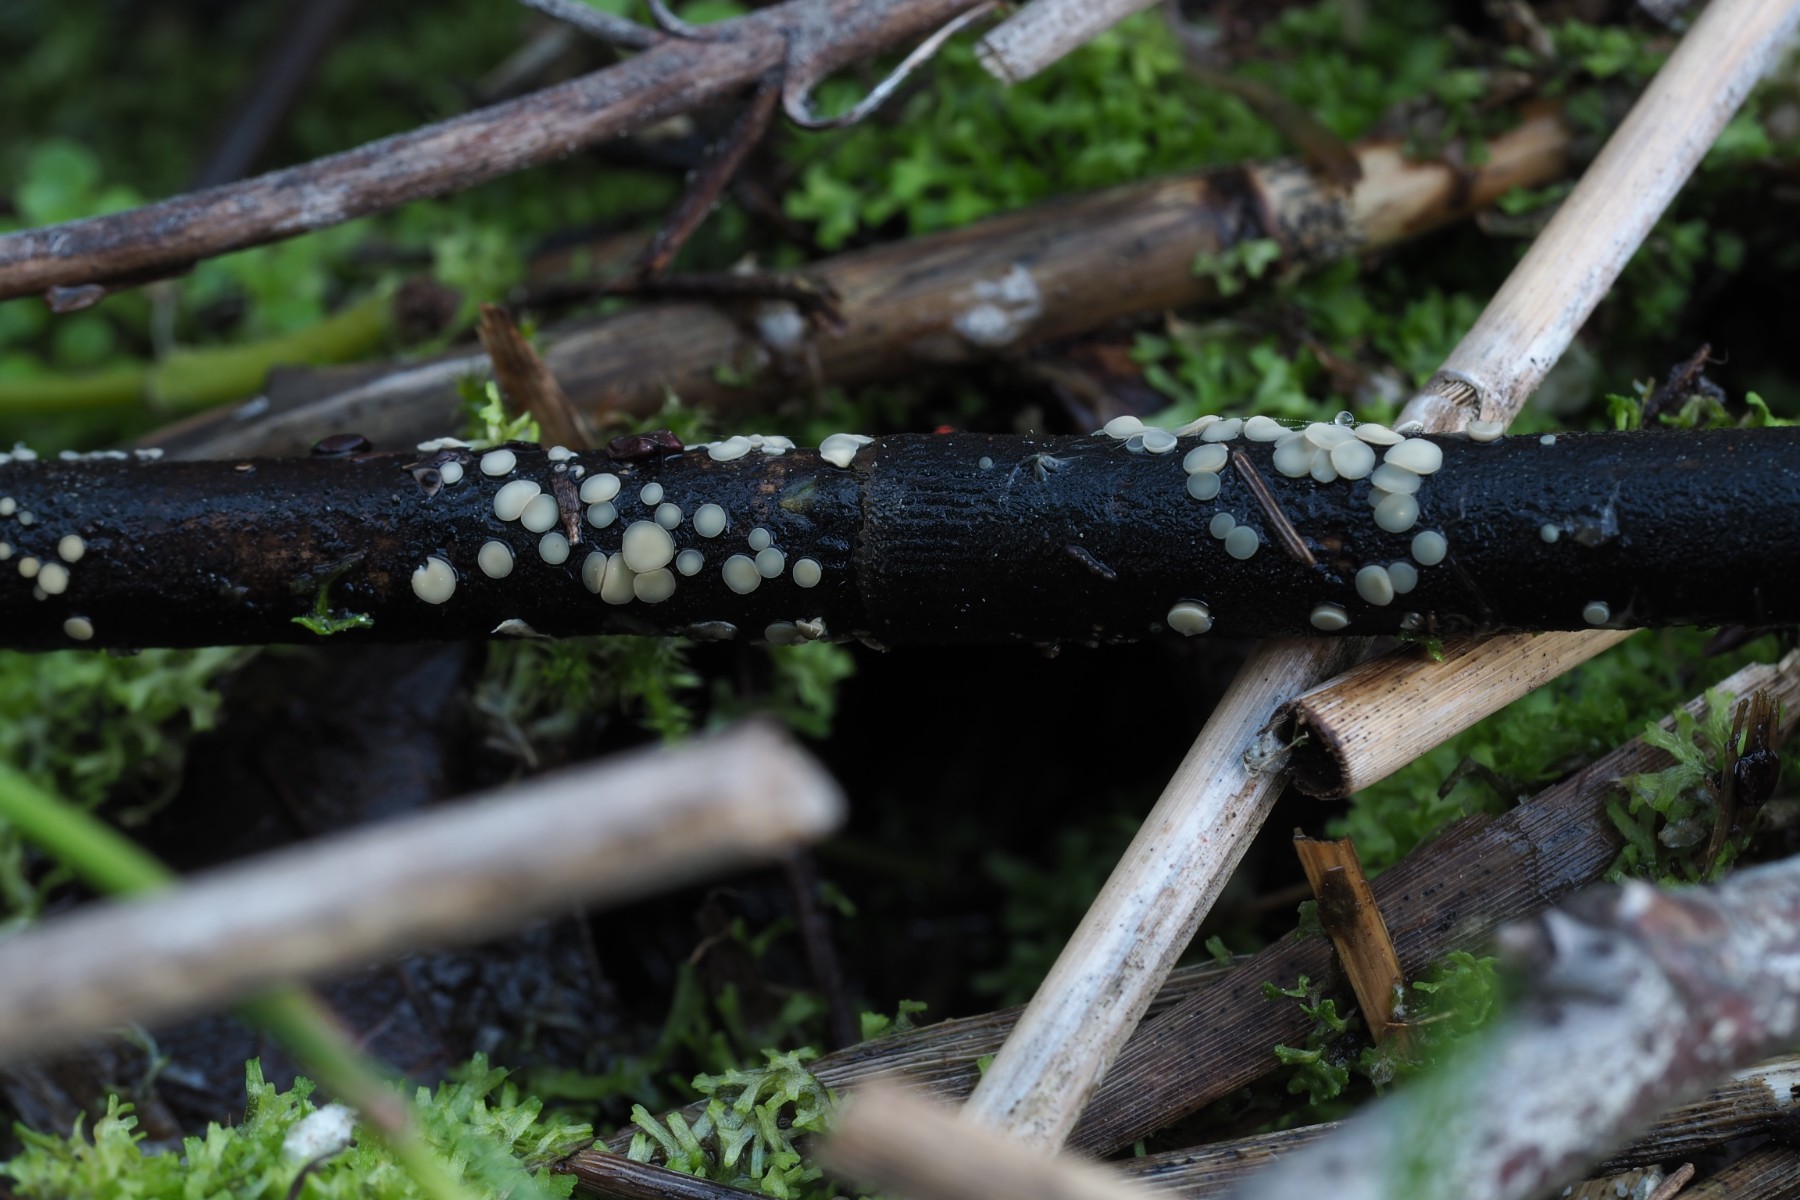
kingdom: Fungi
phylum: Ascomycota
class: Leotiomycetes
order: Helotiales
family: Mollisiaceae
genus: Trichobelonium
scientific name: Trichobelonium kneiffii
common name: tagrør-gråskive
